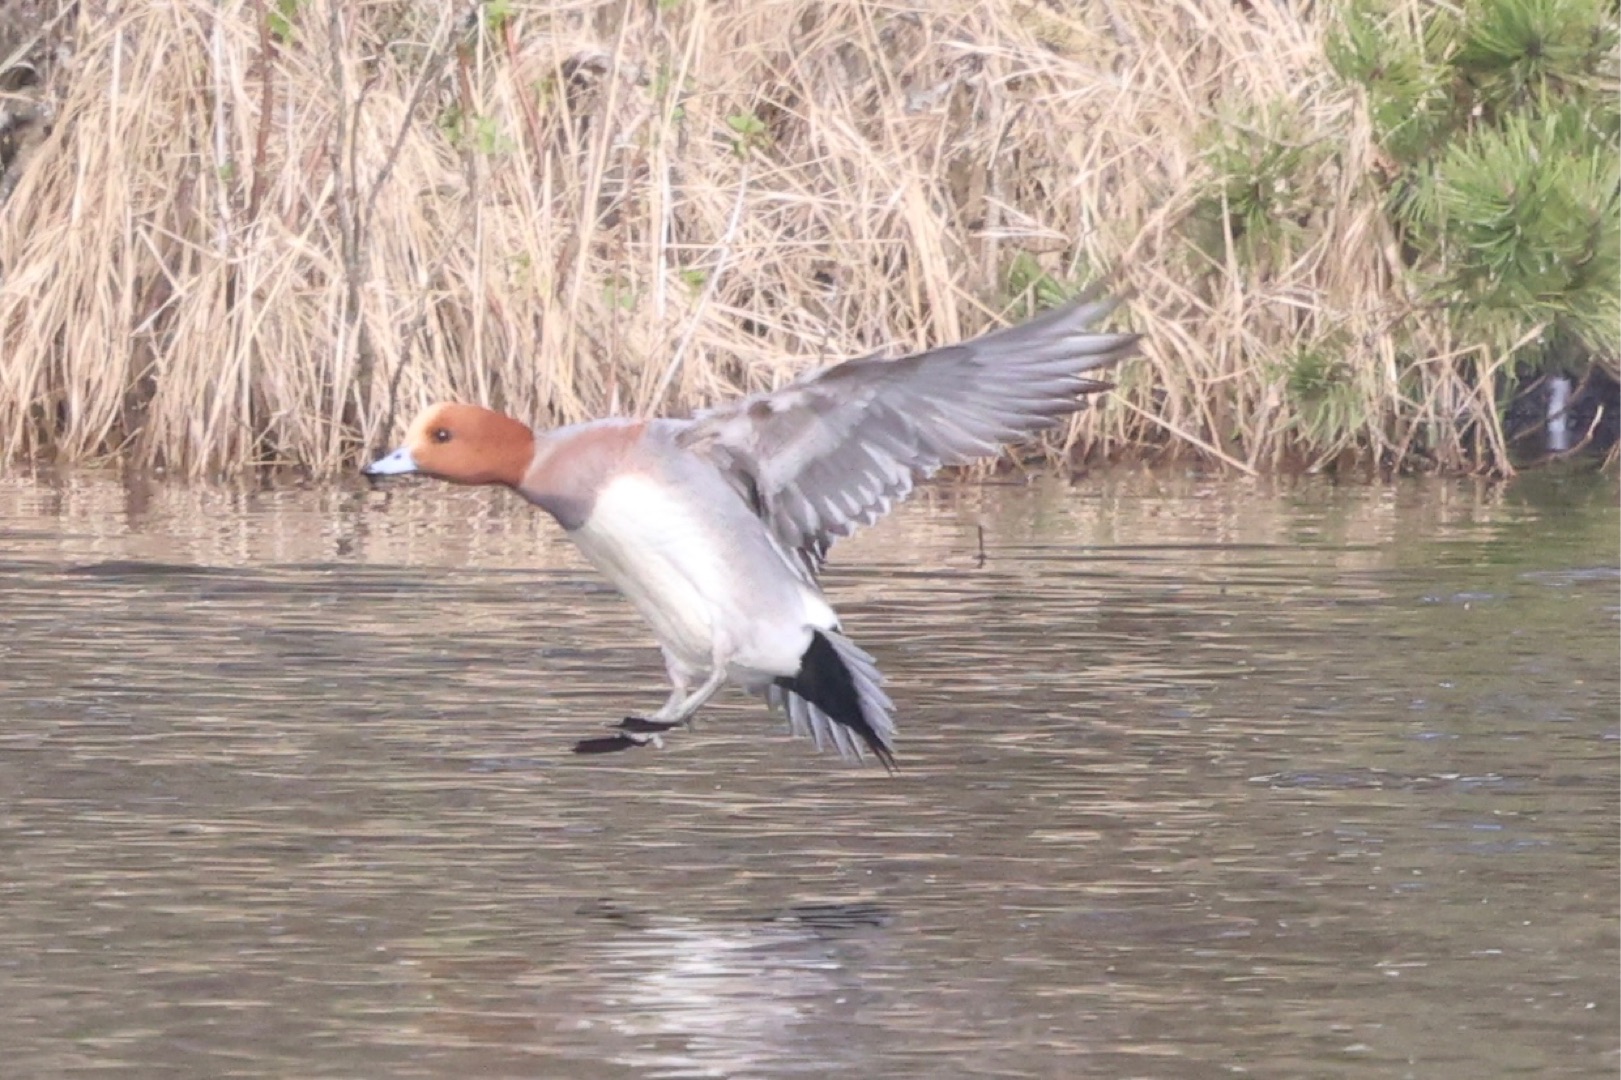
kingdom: Animalia
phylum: Chordata
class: Aves
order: Anseriformes
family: Anatidae
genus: Mareca
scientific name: Mareca penelope
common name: Pibeand
